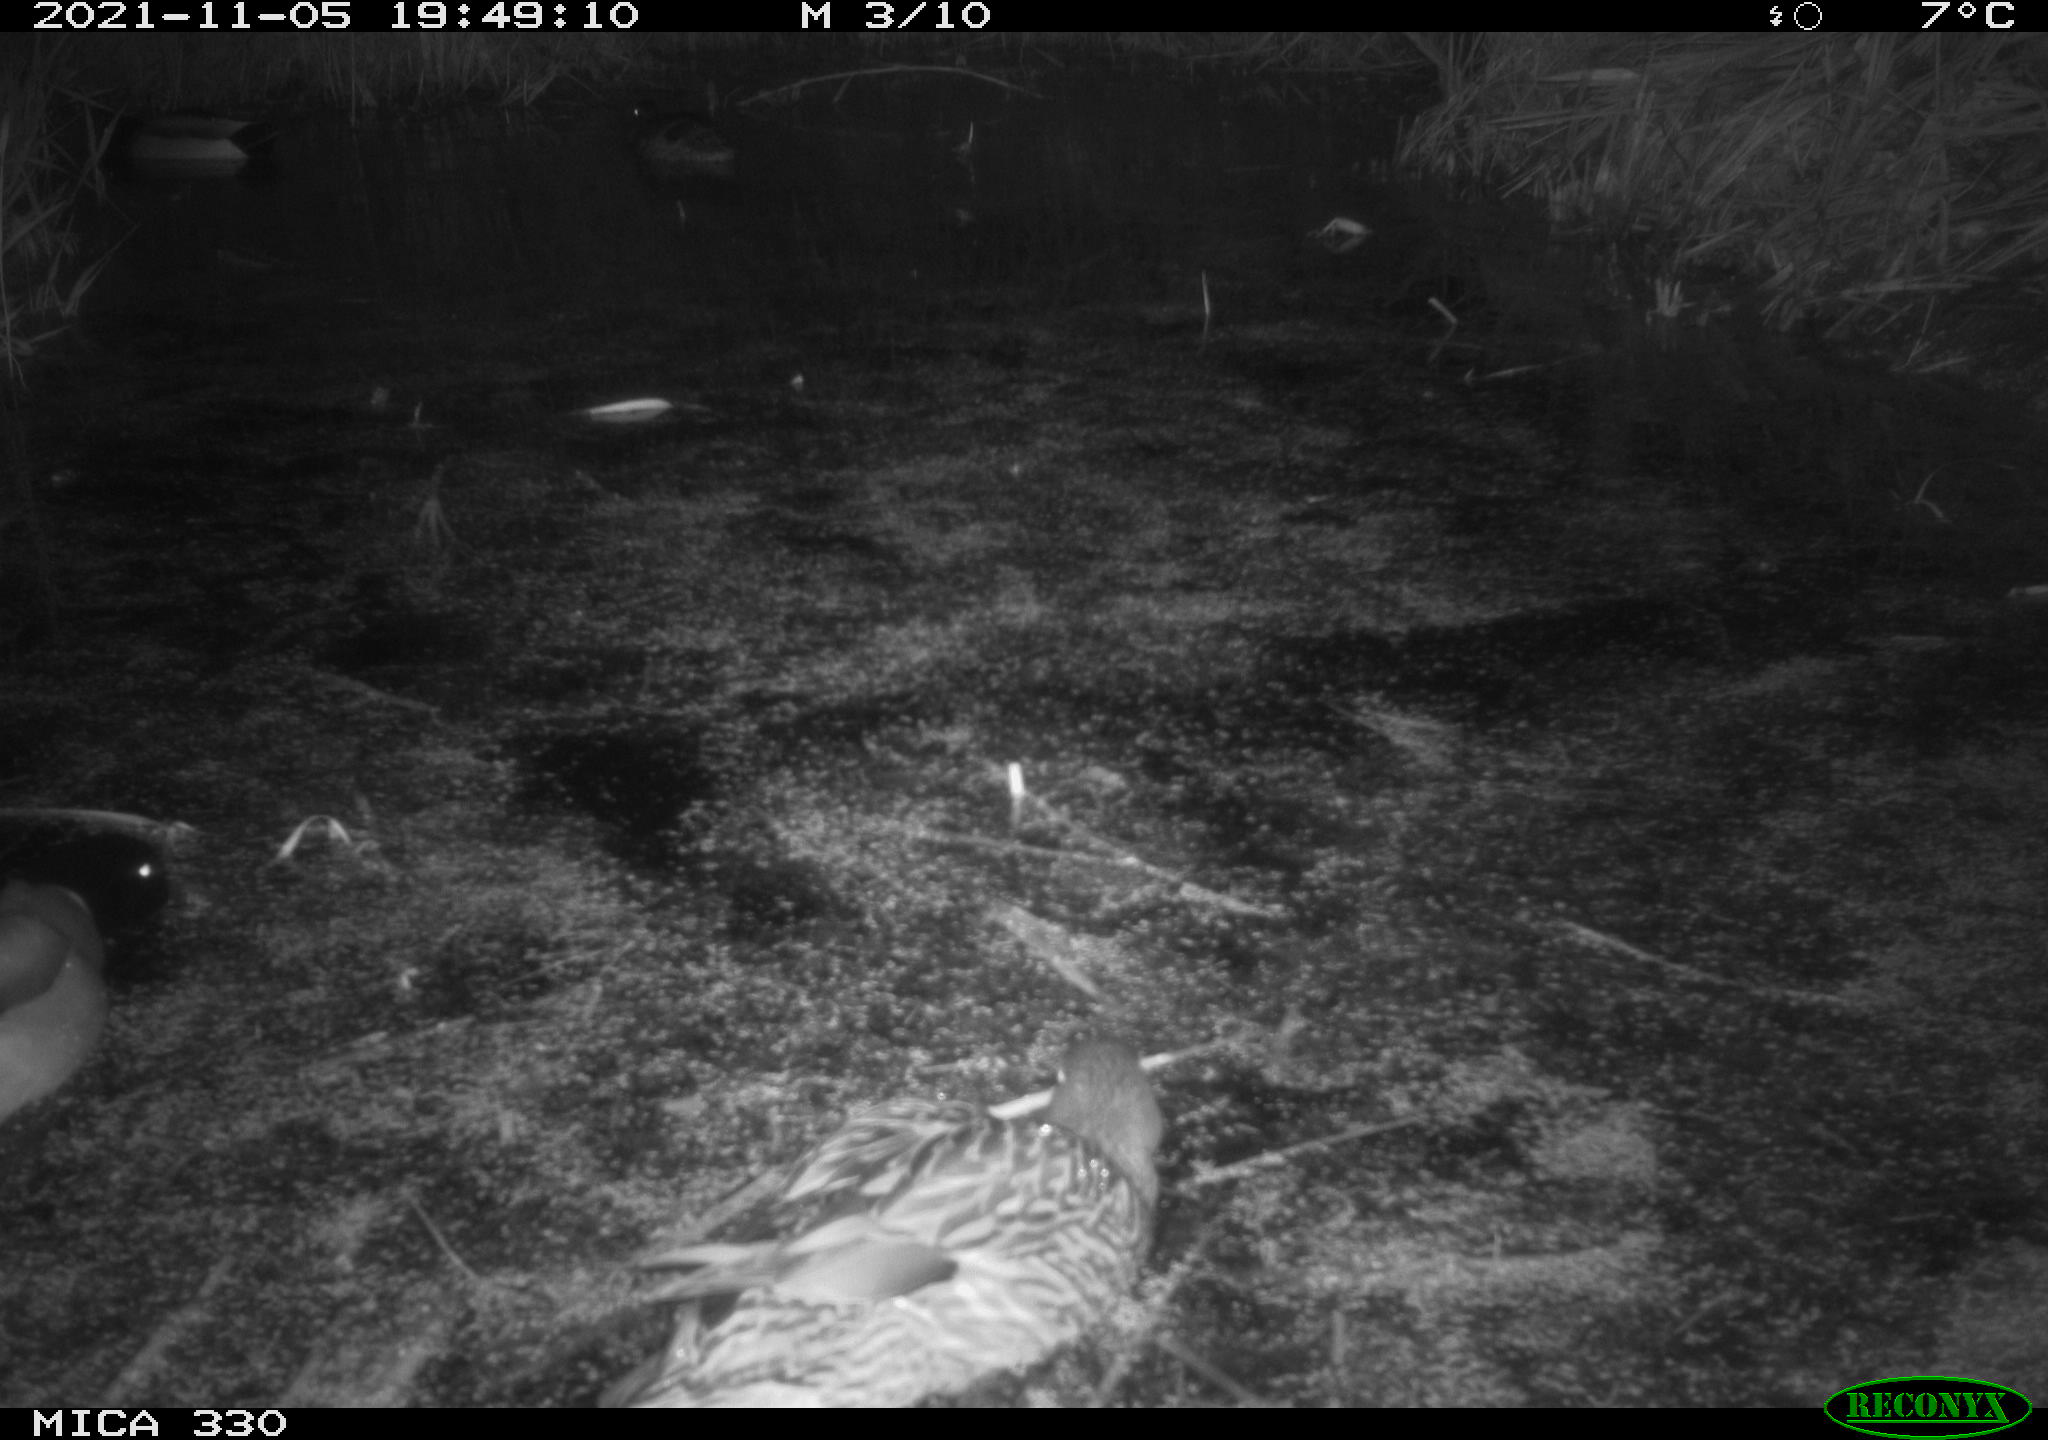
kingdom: Animalia
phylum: Chordata
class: Aves
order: Anseriformes
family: Anatidae
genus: Anas
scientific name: Anas platyrhynchos
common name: Mallard
